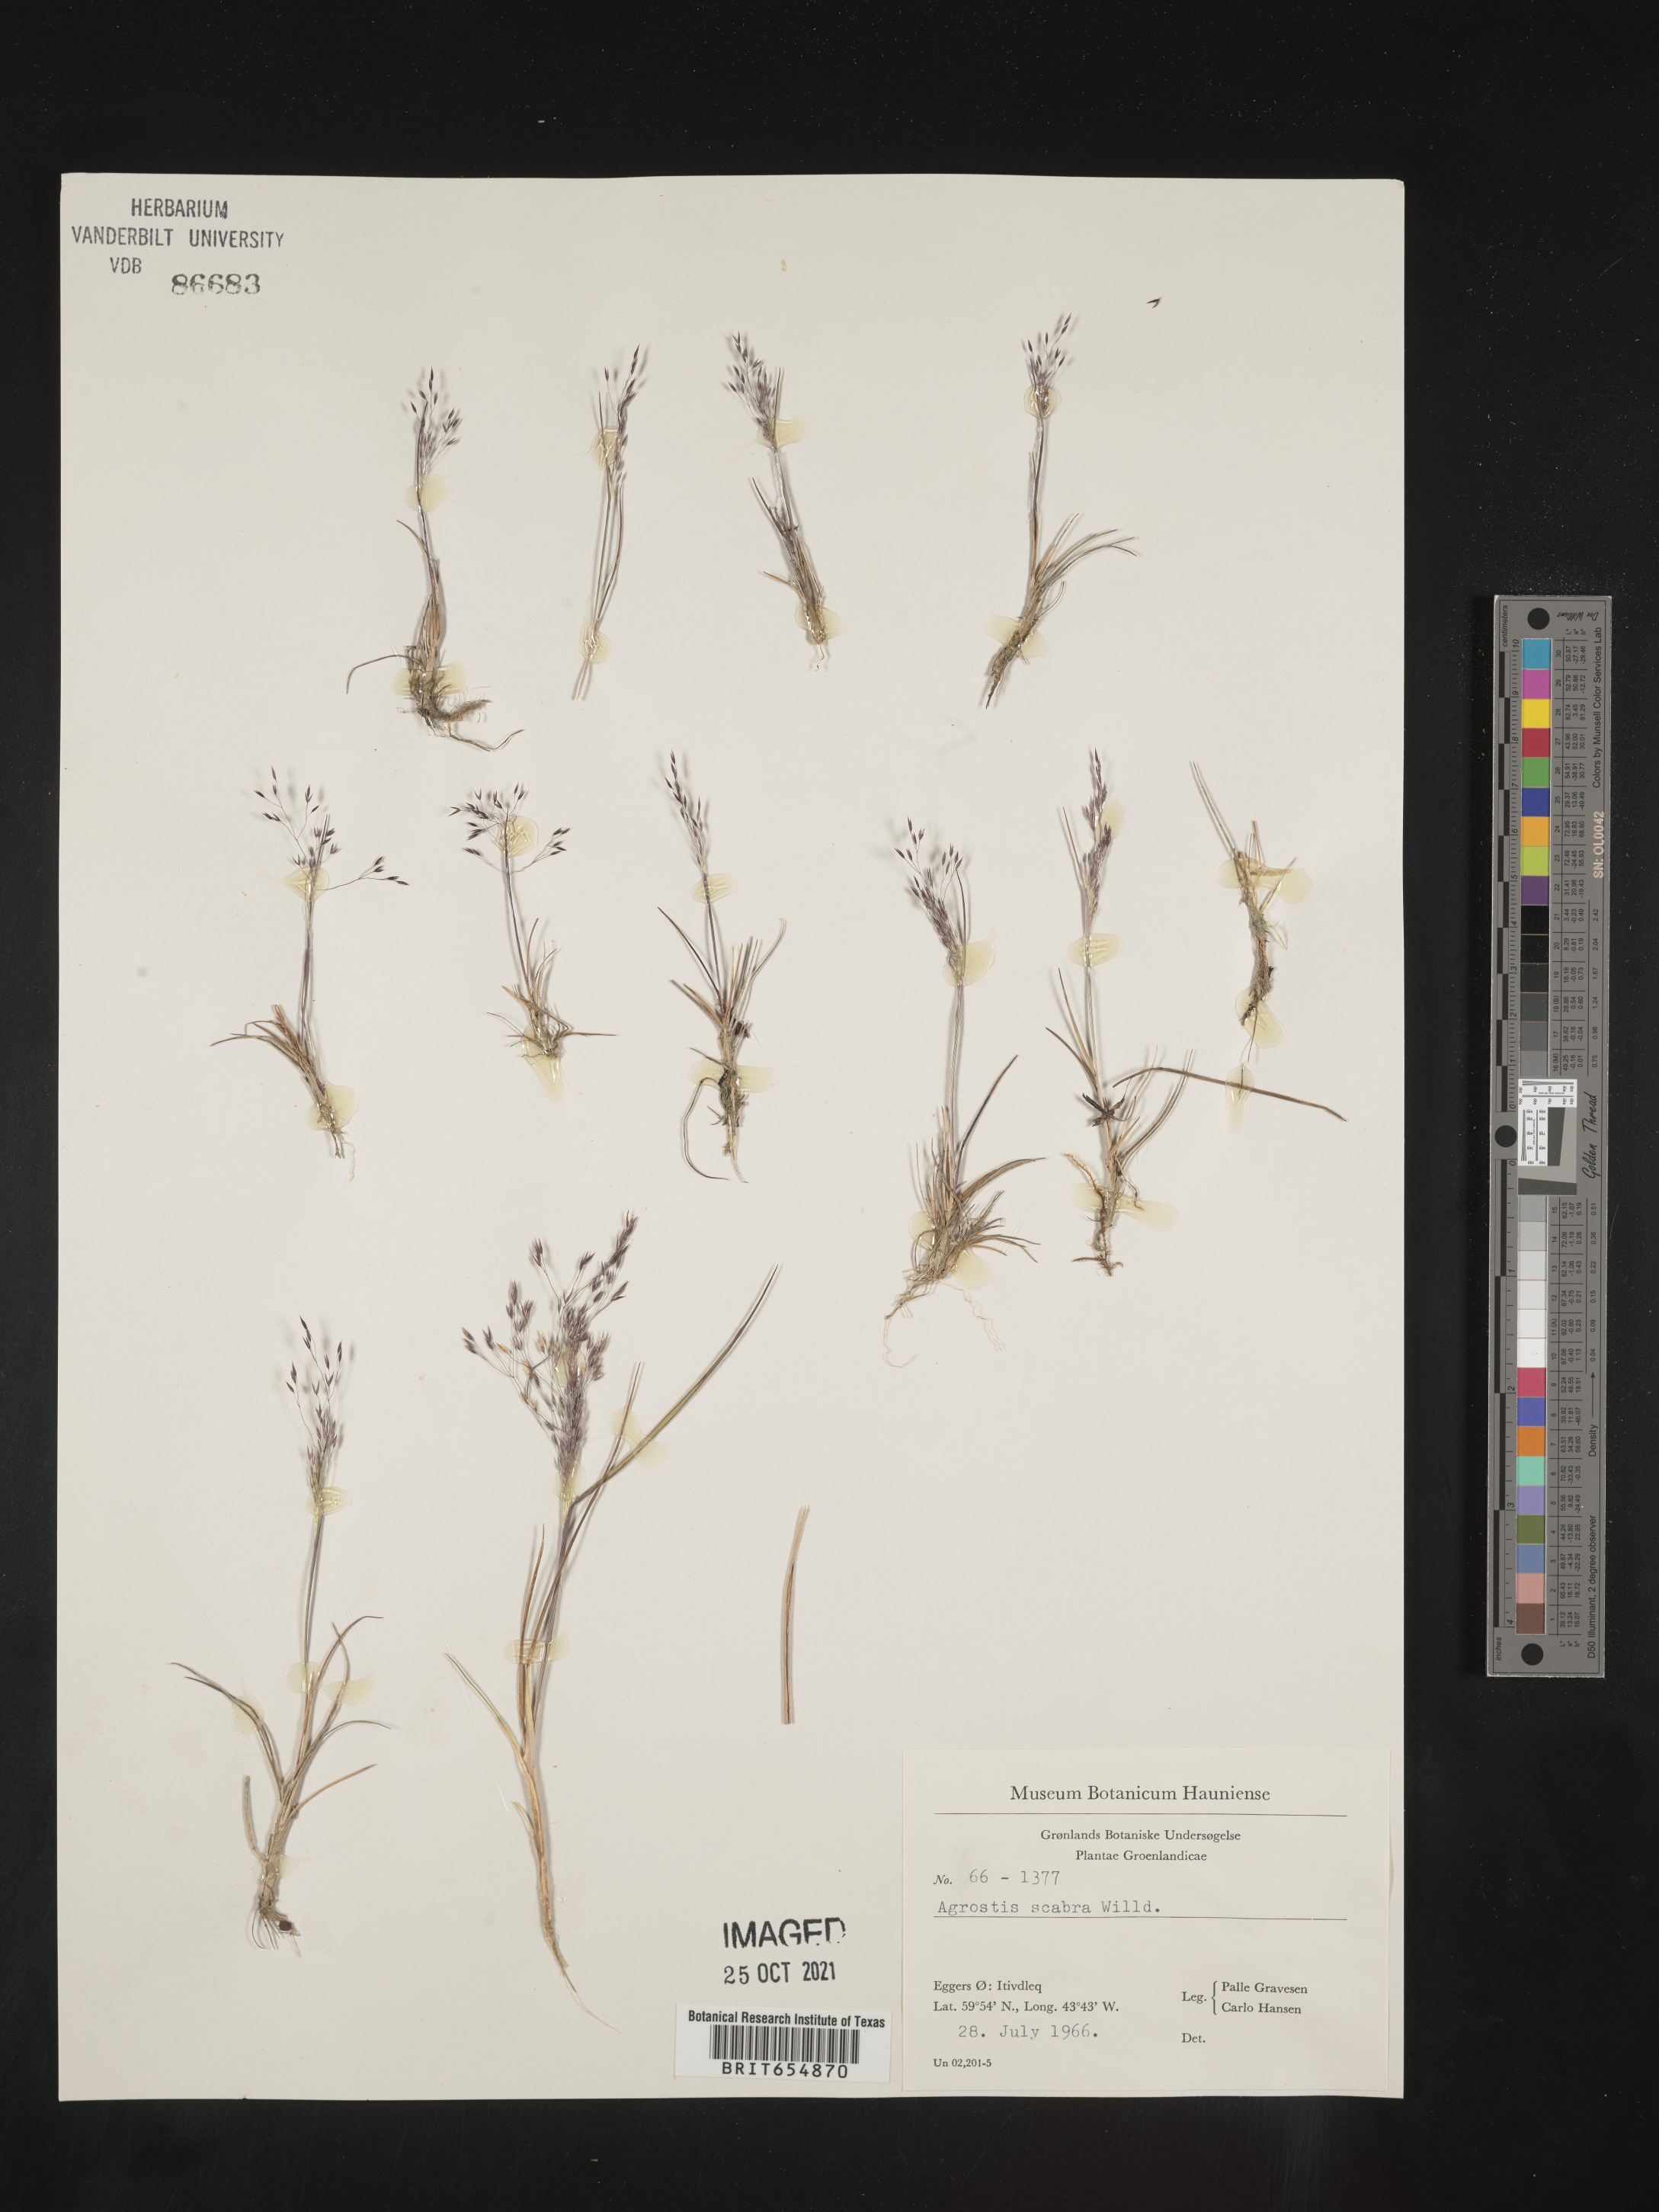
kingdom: Plantae
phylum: Tracheophyta
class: Liliopsida
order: Poales
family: Poaceae
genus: Agrostis
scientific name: Agrostis
